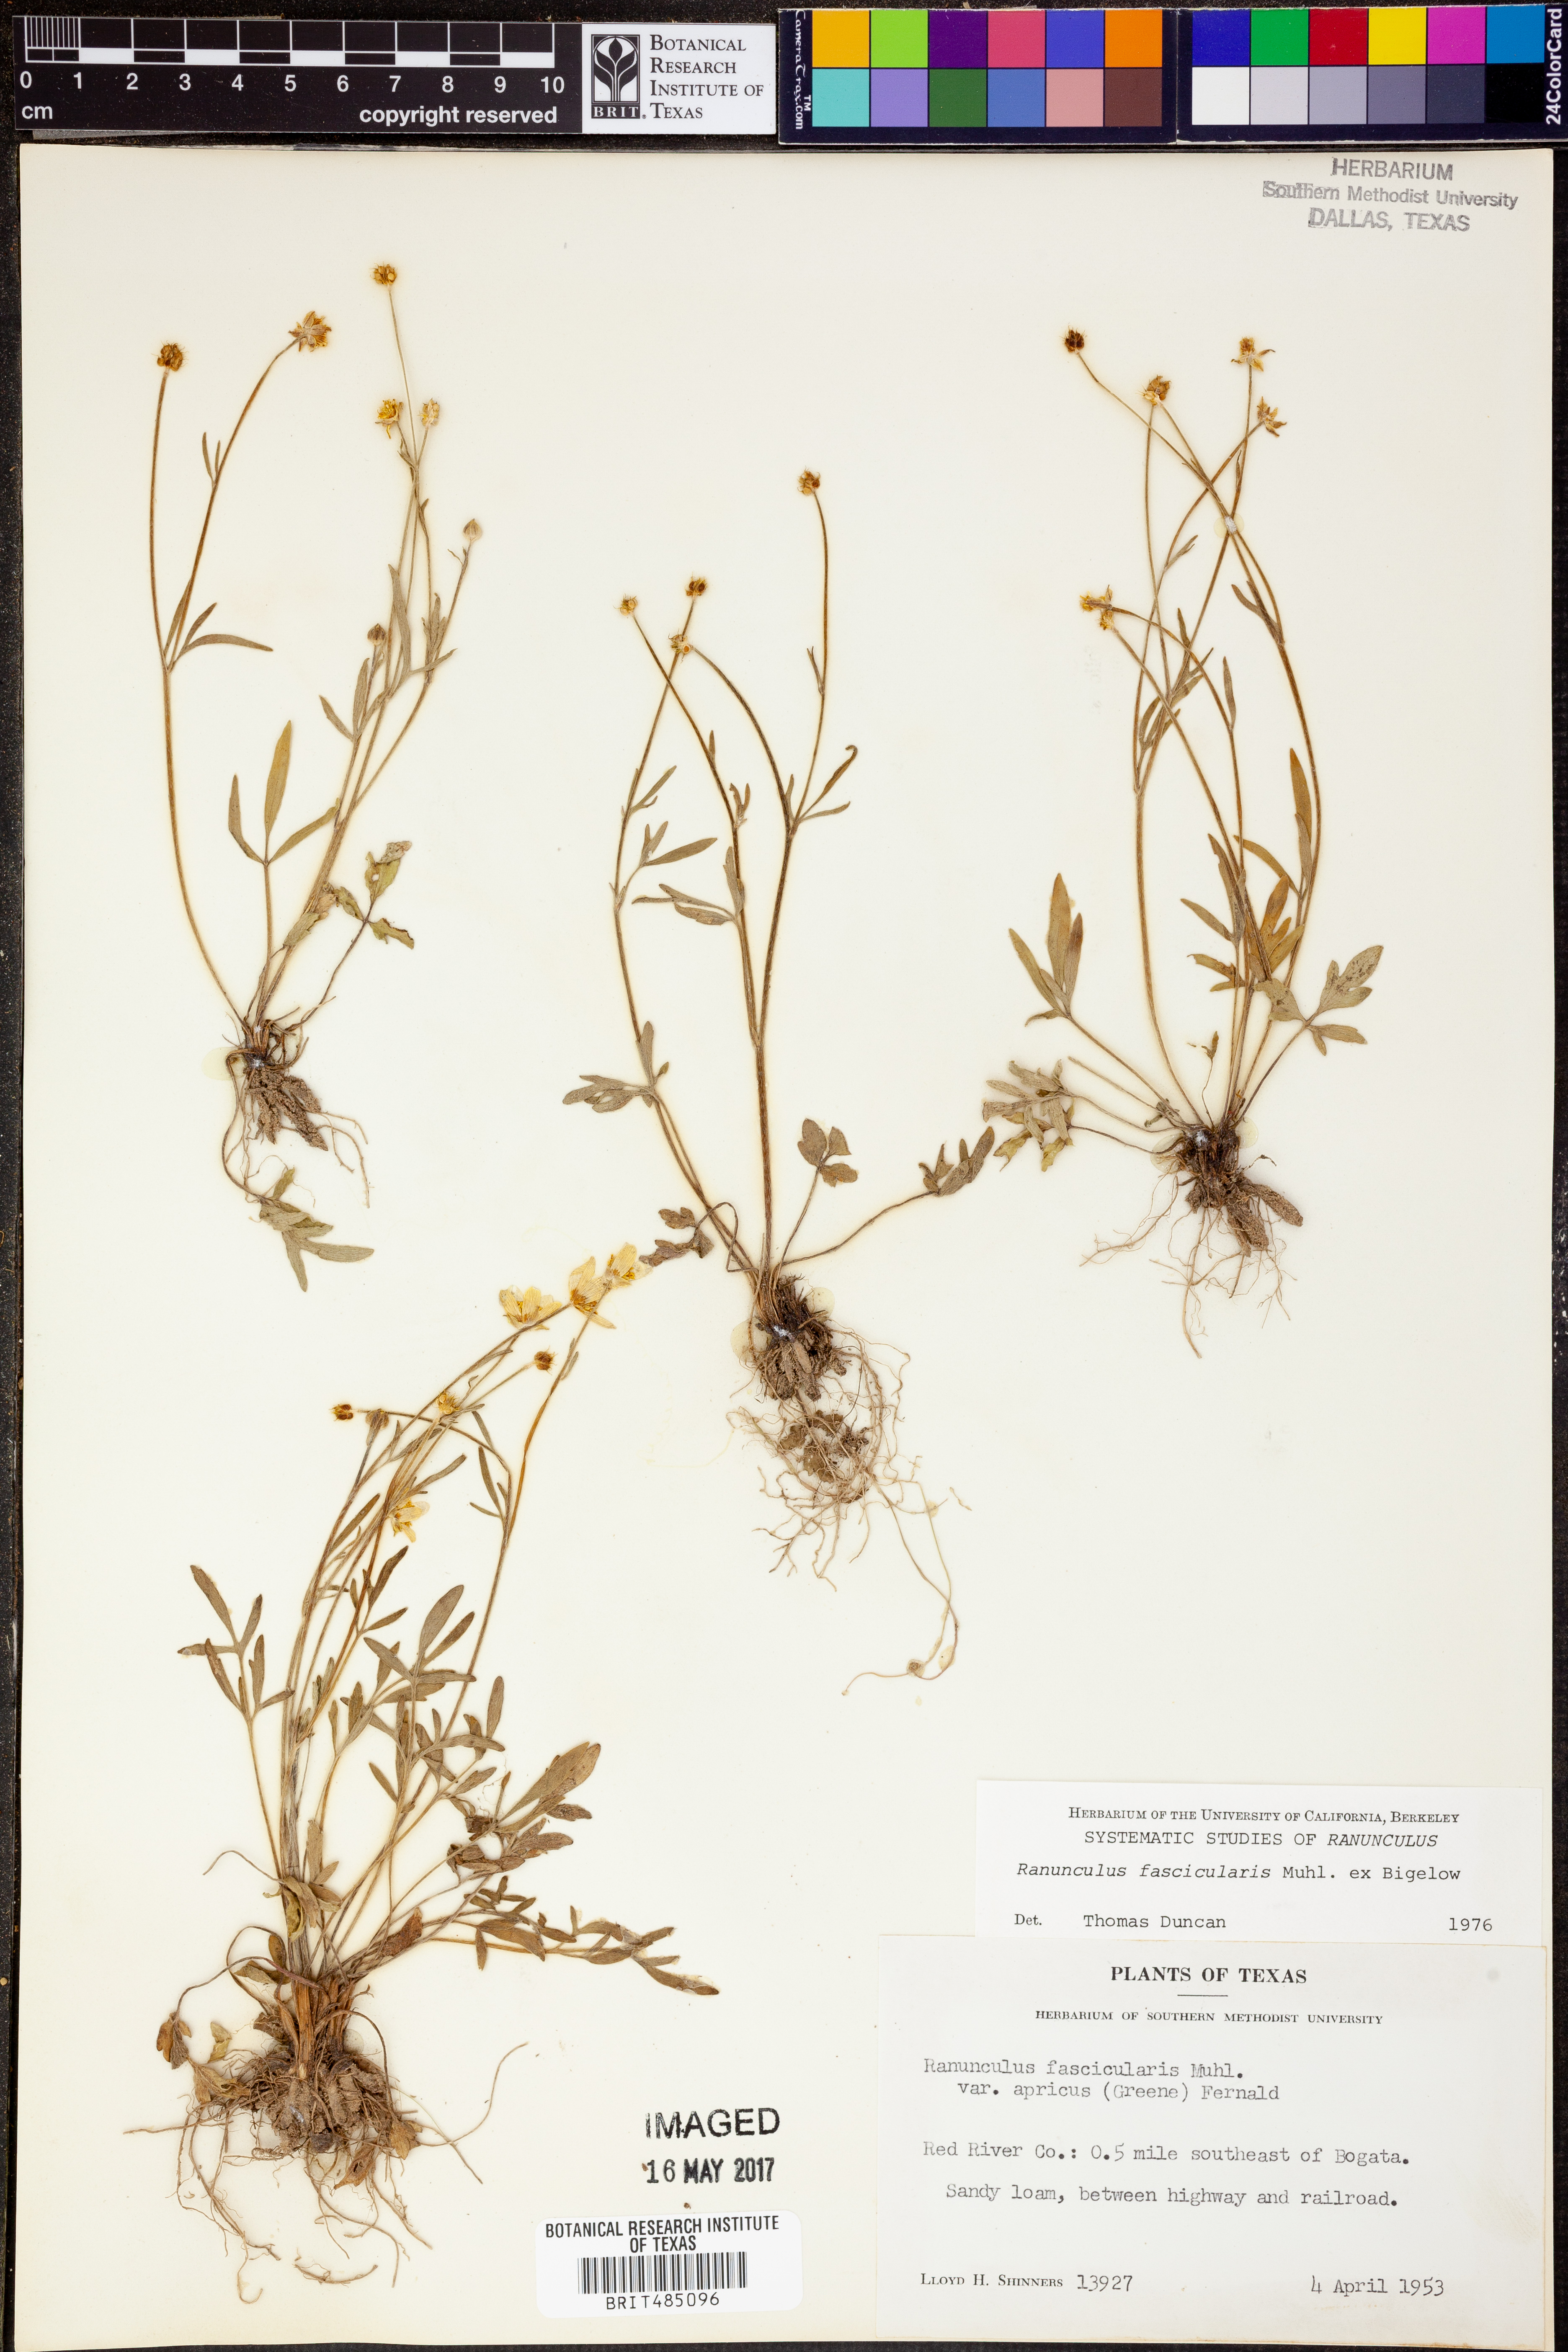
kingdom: Plantae
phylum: Tracheophyta
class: Magnoliopsida
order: Ranunculales
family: Ranunculaceae
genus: Ranunculus
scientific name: Ranunculus fascicularis
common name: Early buttercup
